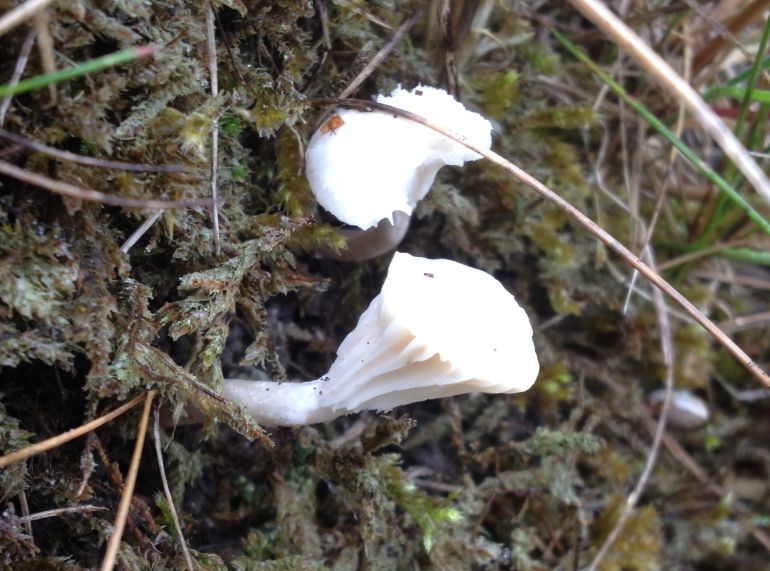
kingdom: Fungi
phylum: Basidiomycota
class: Agaricomycetes
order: Agaricales
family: Hygrophoraceae
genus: Cuphophyllus
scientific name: Cuphophyllus virgineus
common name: snehvid vokshat
